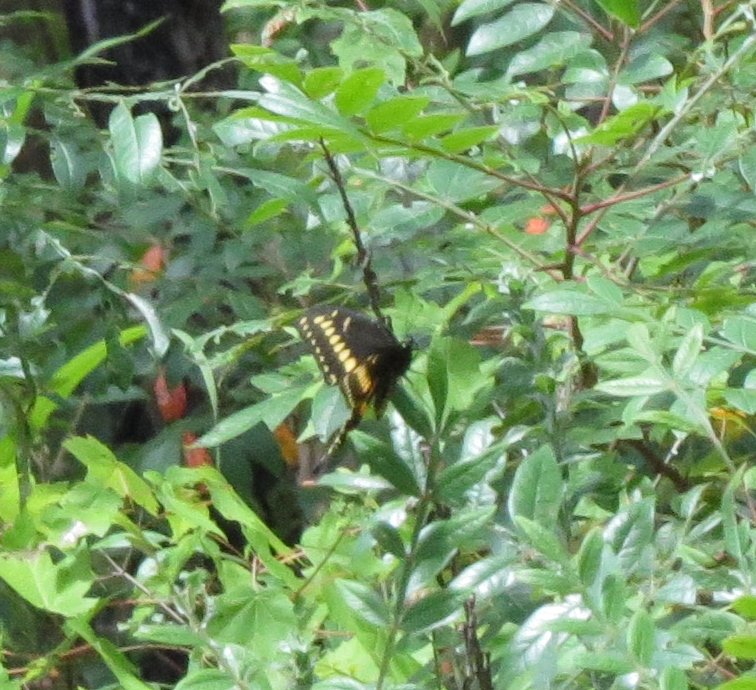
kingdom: Animalia
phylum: Arthropoda
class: Insecta
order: Lepidoptera
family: Papilionidae
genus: Papilio
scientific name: Papilio polyxenes
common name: Black Swallowtail
